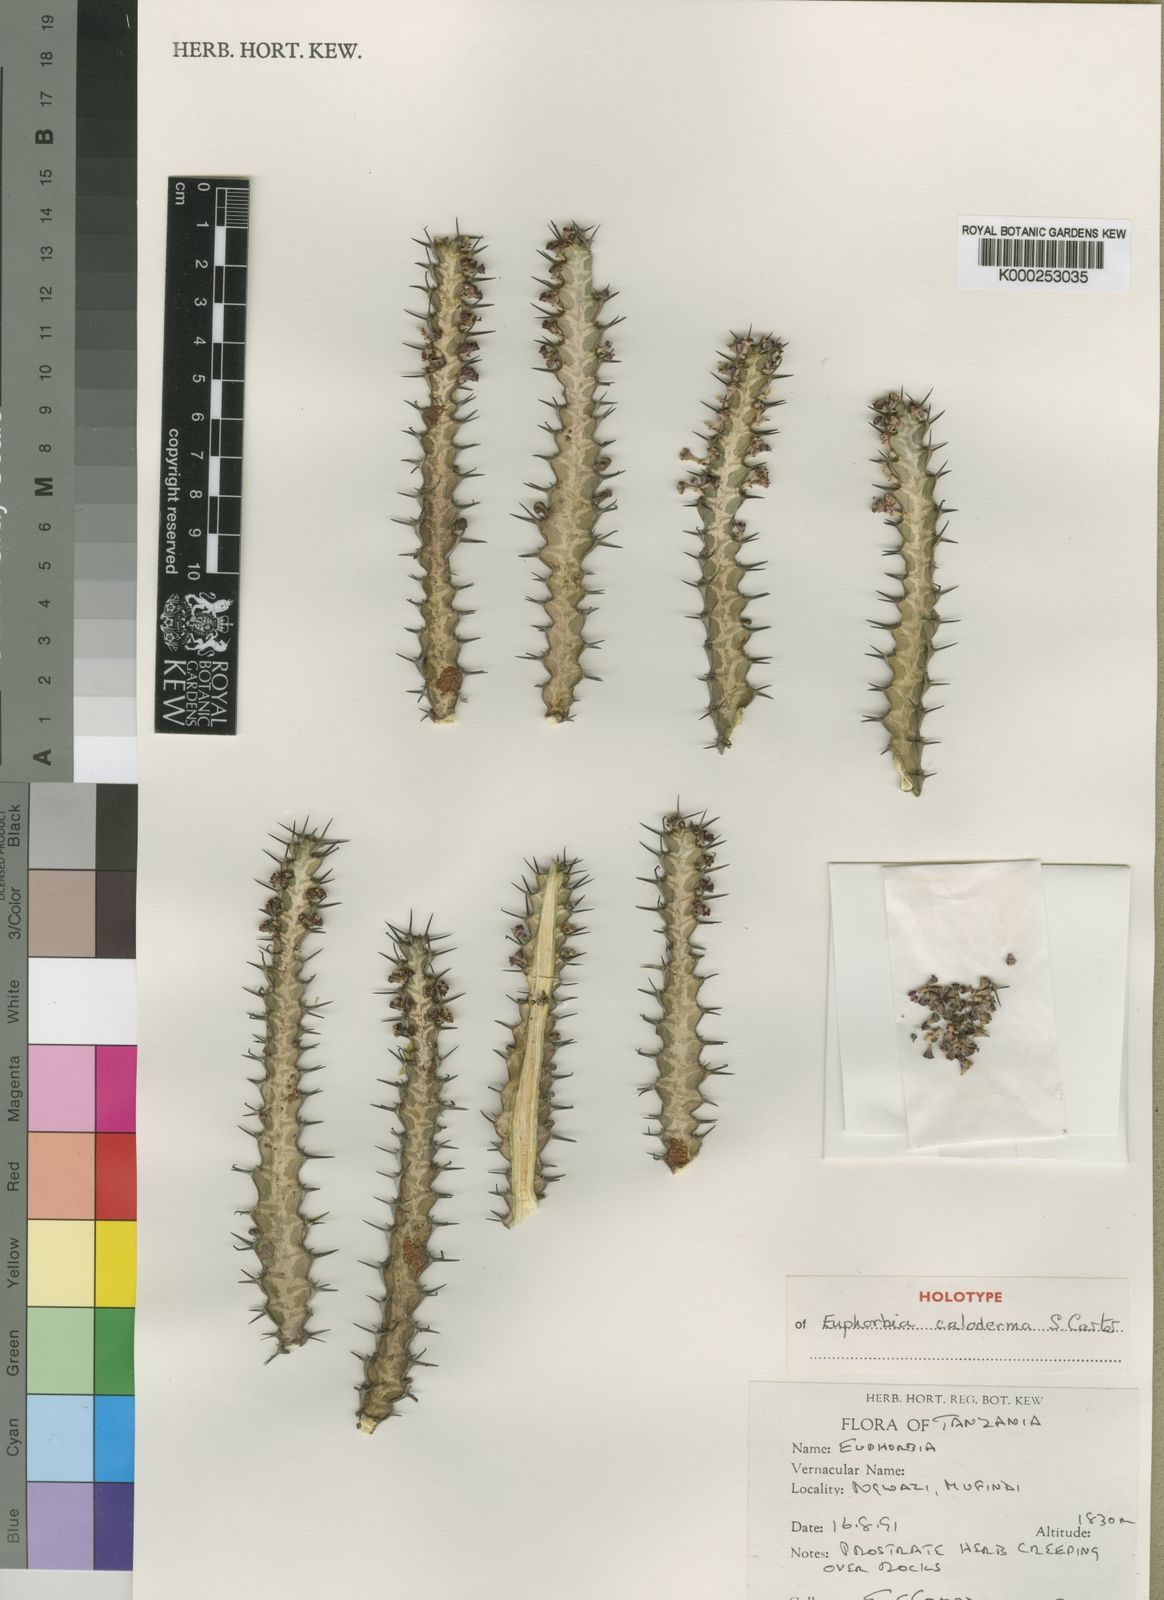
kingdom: Plantae
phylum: Tracheophyta
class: Magnoliopsida
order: Malpighiales
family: Euphorbiaceae
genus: Euphorbia
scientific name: Euphorbia caloderma
